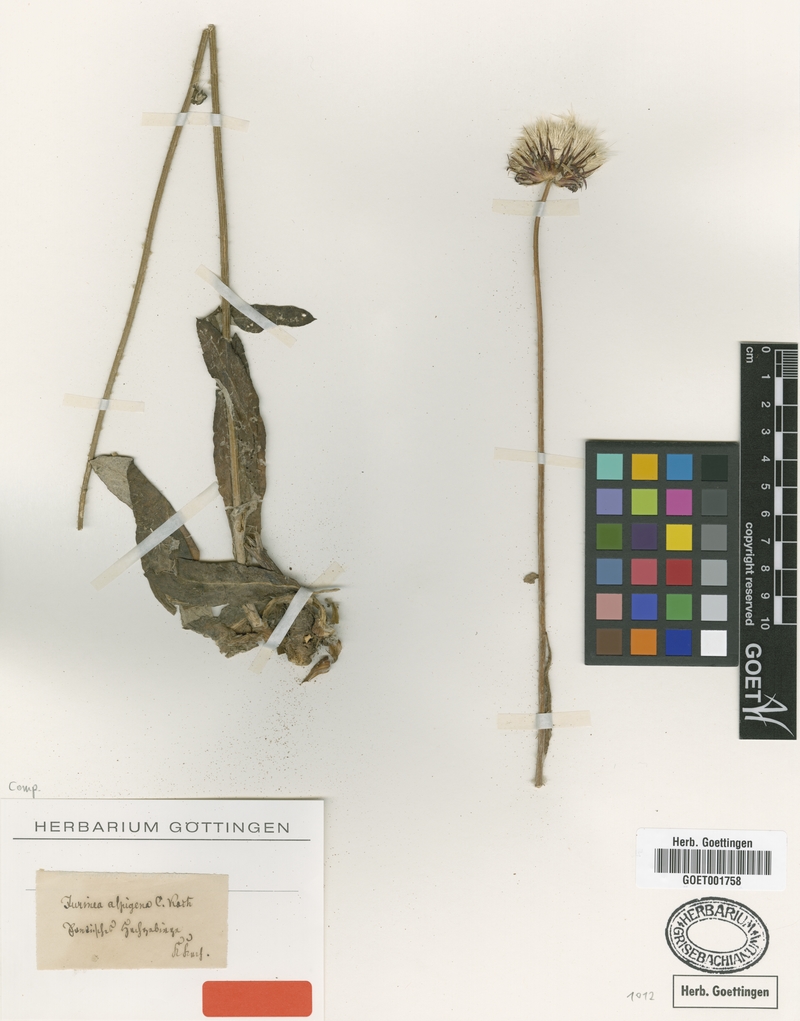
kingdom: Plantae
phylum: Tracheophyta
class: Magnoliopsida
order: Asterales
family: Asteraceae
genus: Jurinea
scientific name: Jurinea alpigena
